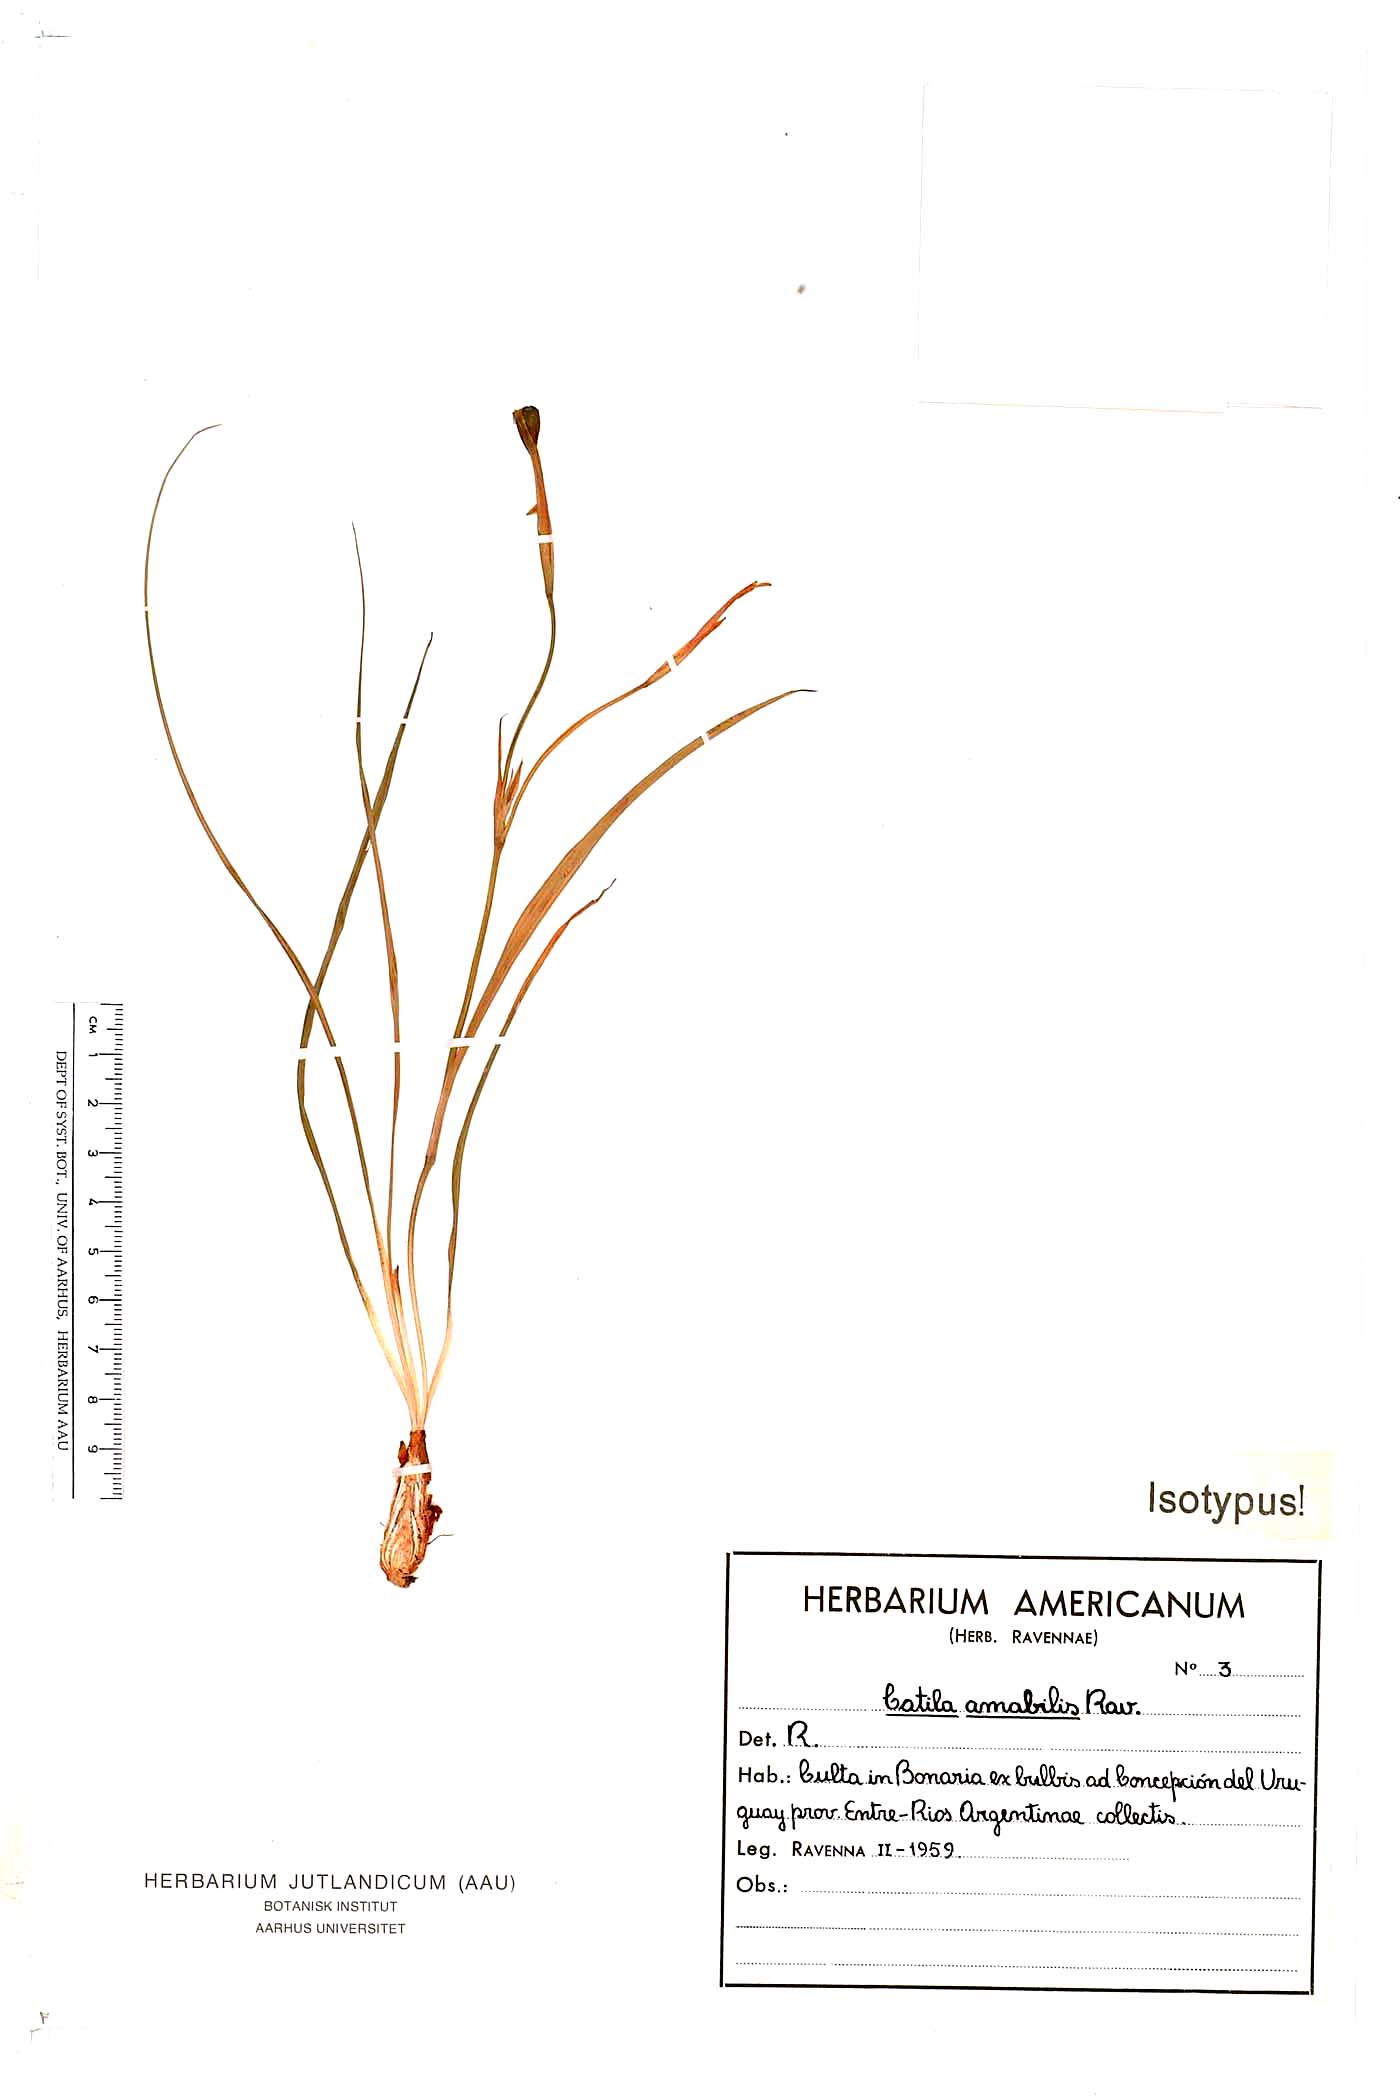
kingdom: Plantae
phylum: Tracheophyta
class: Liliopsida
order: Asparagales
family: Iridaceae
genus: Calydorea
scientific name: Calydorea amabilis
